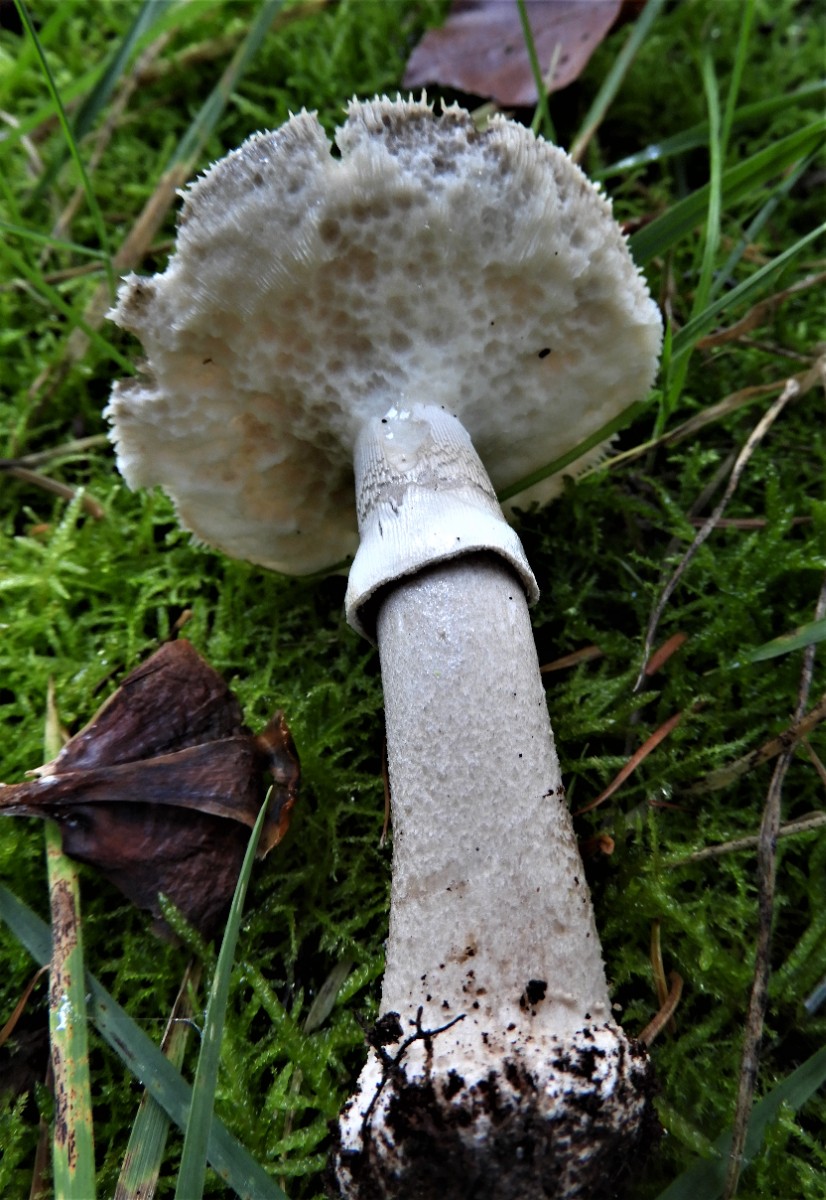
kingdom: Fungi
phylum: Basidiomycota
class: Agaricomycetes
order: Agaricales
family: Amanitaceae
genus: Amanita
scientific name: Amanita
